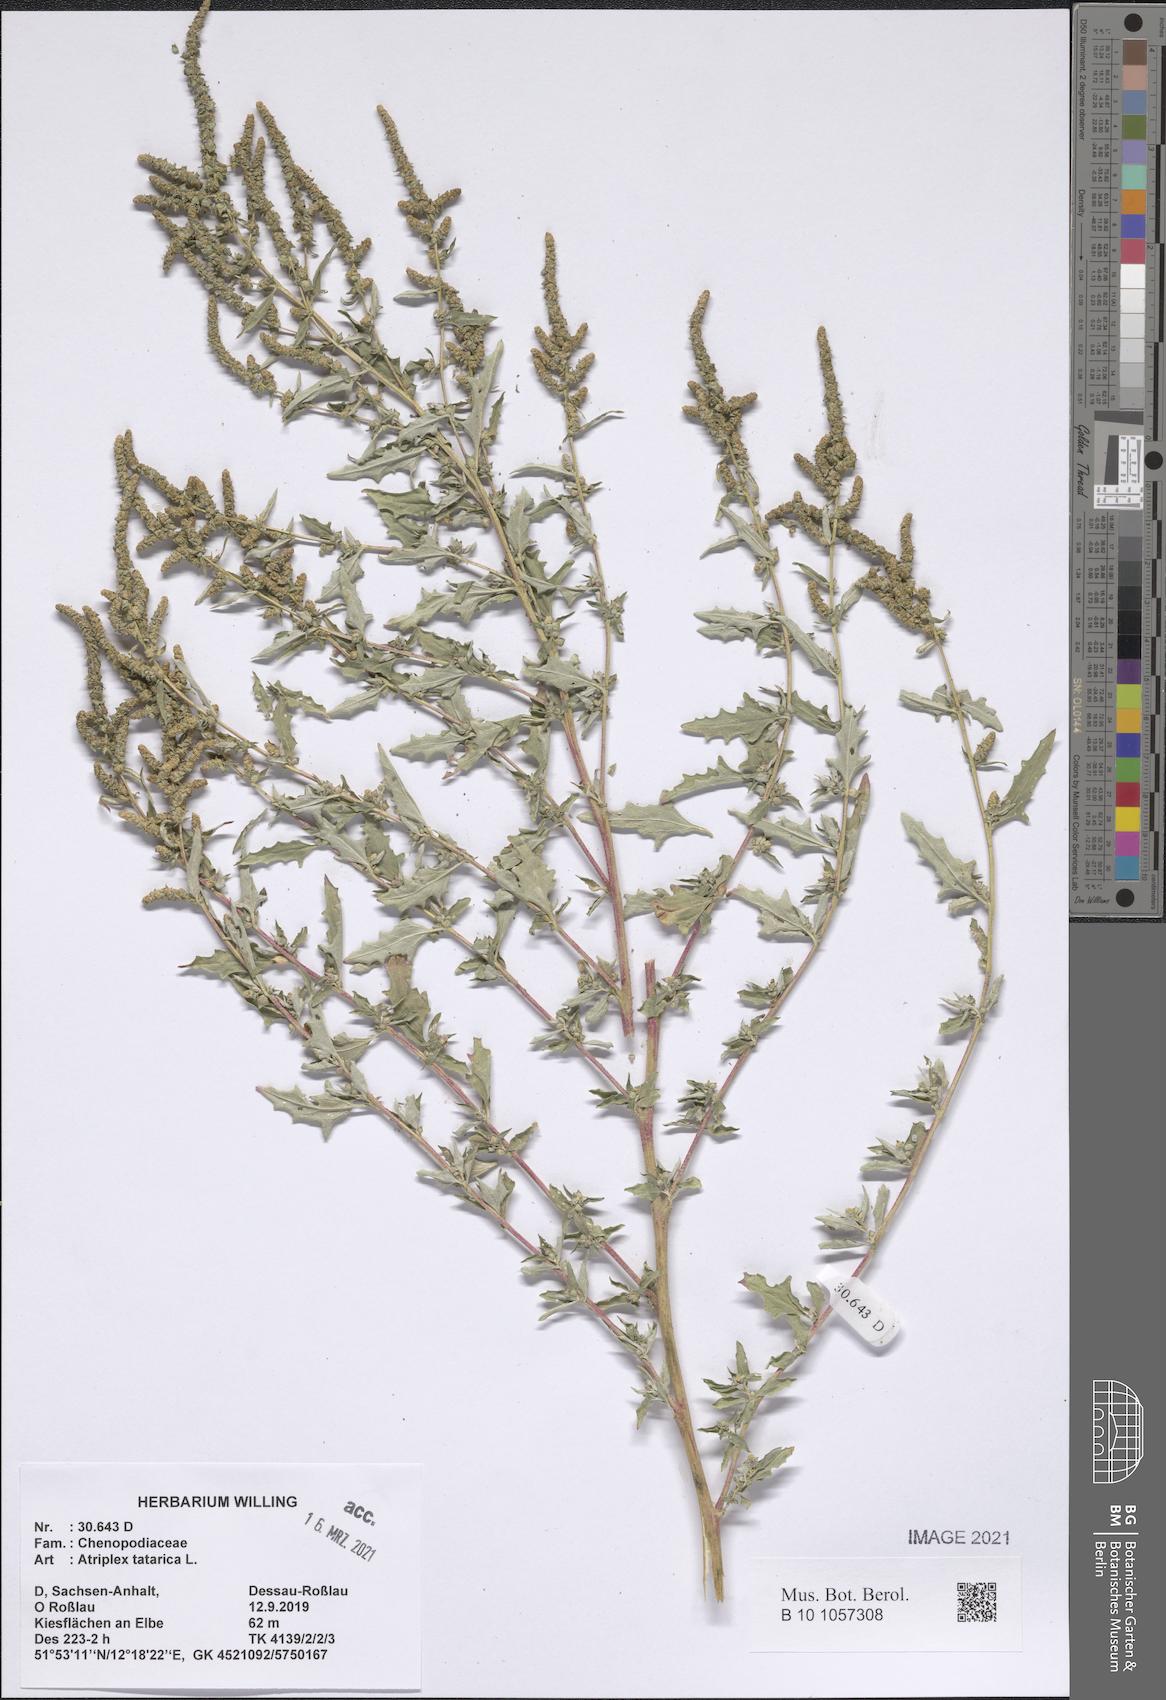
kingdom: Plantae
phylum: Tracheophyta
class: Magnoliopsida
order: Caryophyllales
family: Amaranthaceae
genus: Atriplex
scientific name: Atriplex tatarica
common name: Tatarian orache
